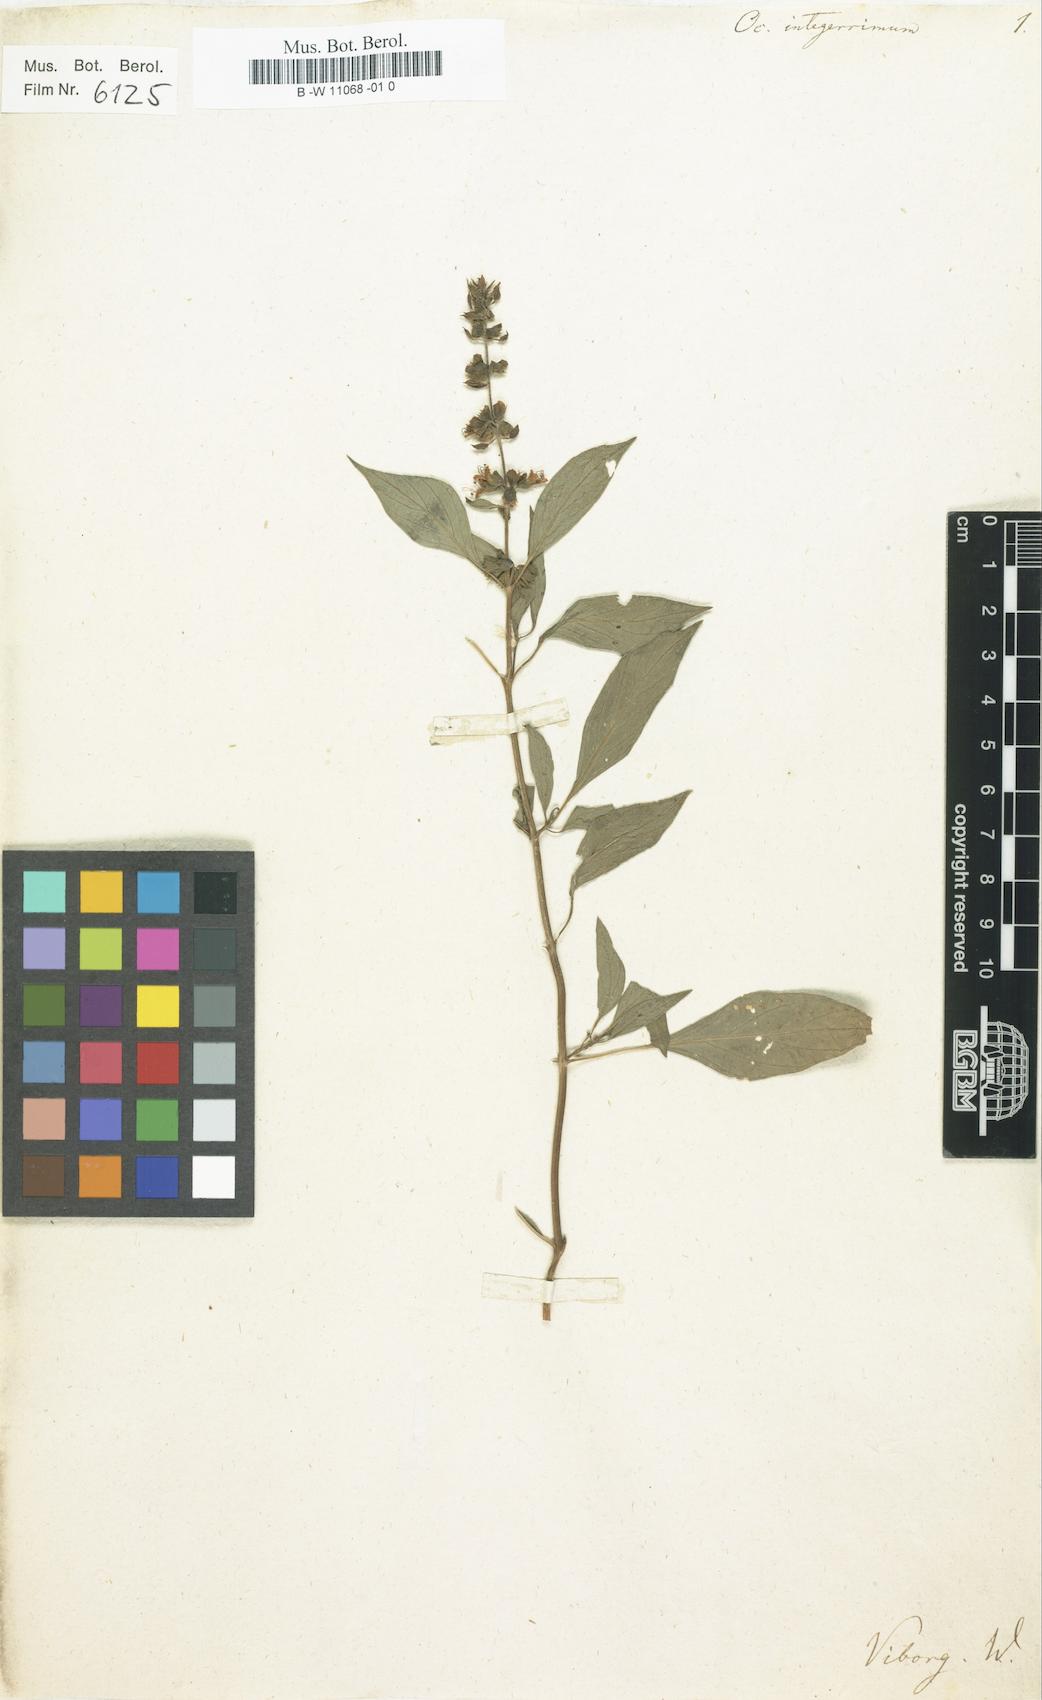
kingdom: Plantae
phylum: Tracheophyta
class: Magnoliopsida
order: Lamiales
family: Lamiaceae
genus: Ocimum
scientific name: Ocimum basilicum
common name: Sweet basil
